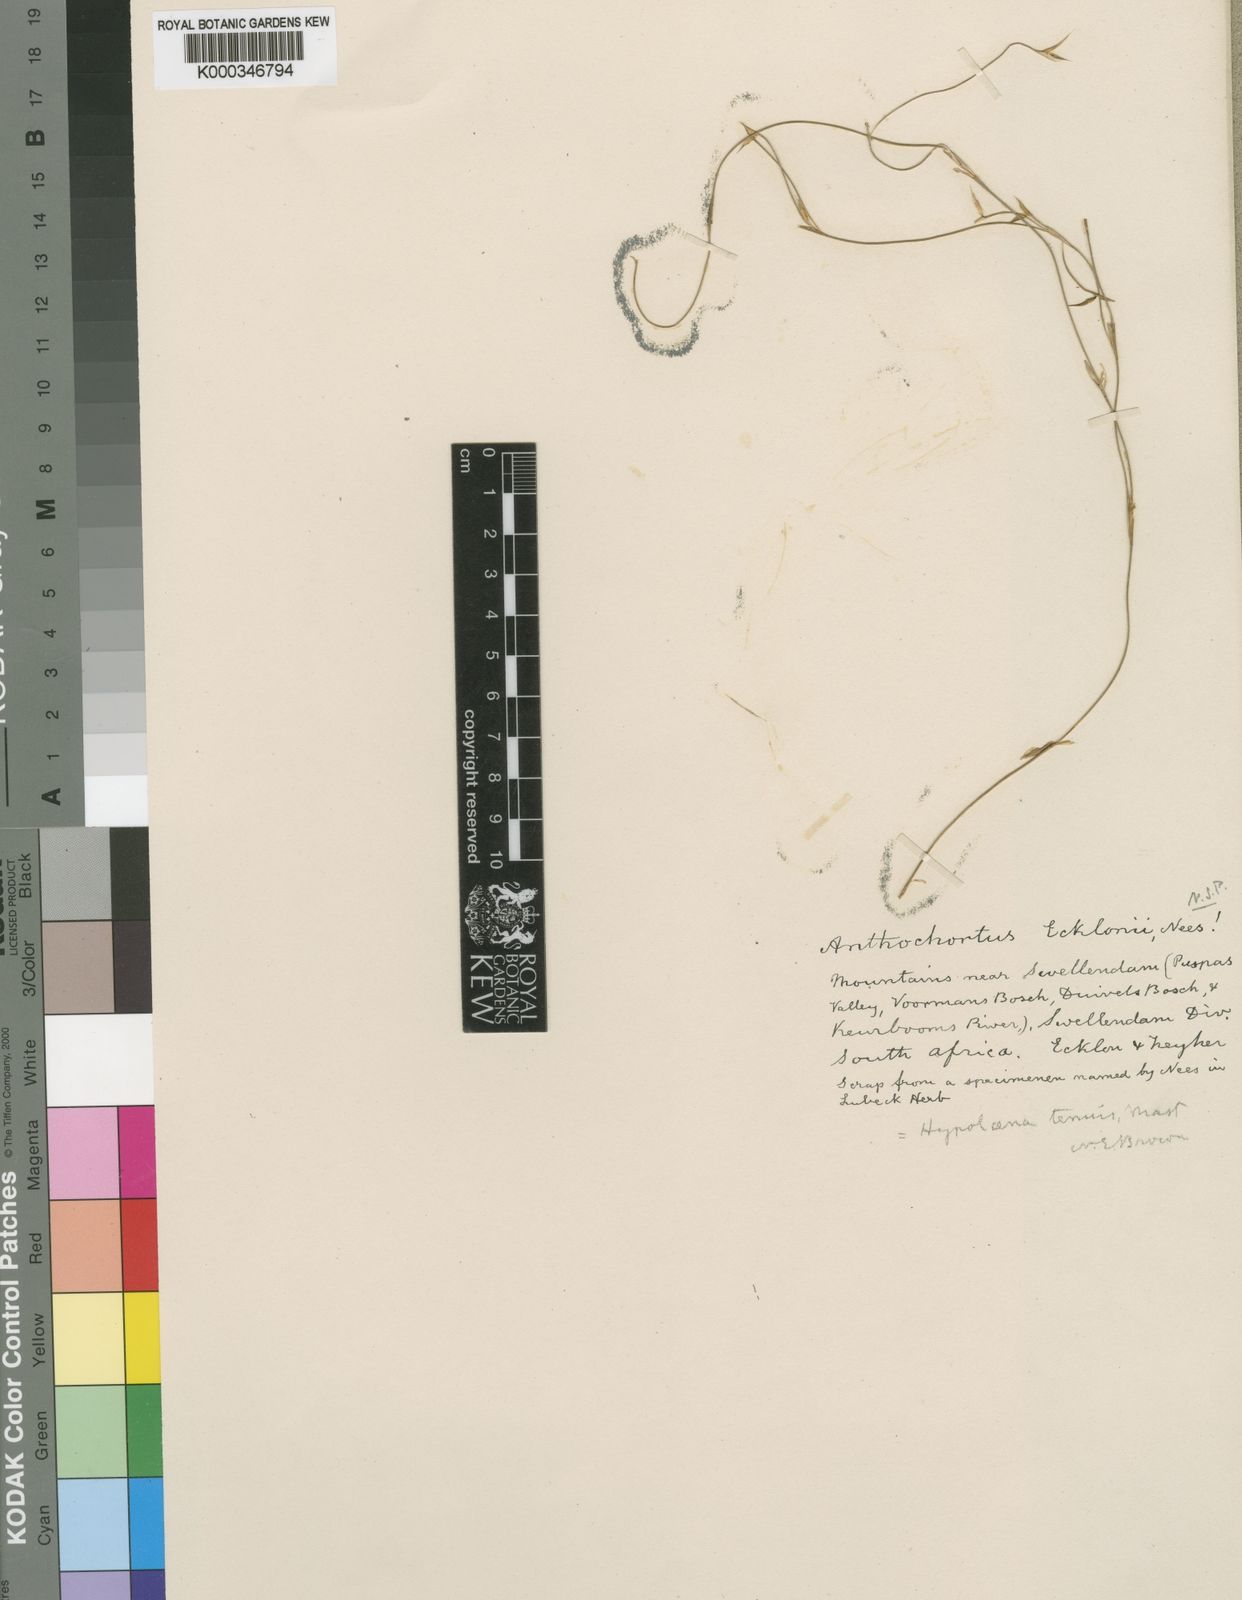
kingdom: Plantae
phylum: Tracheophyta
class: Liliopsida
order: Poales
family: Restionaceae
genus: Anthochortus
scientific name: Anthochortus ecklonii
